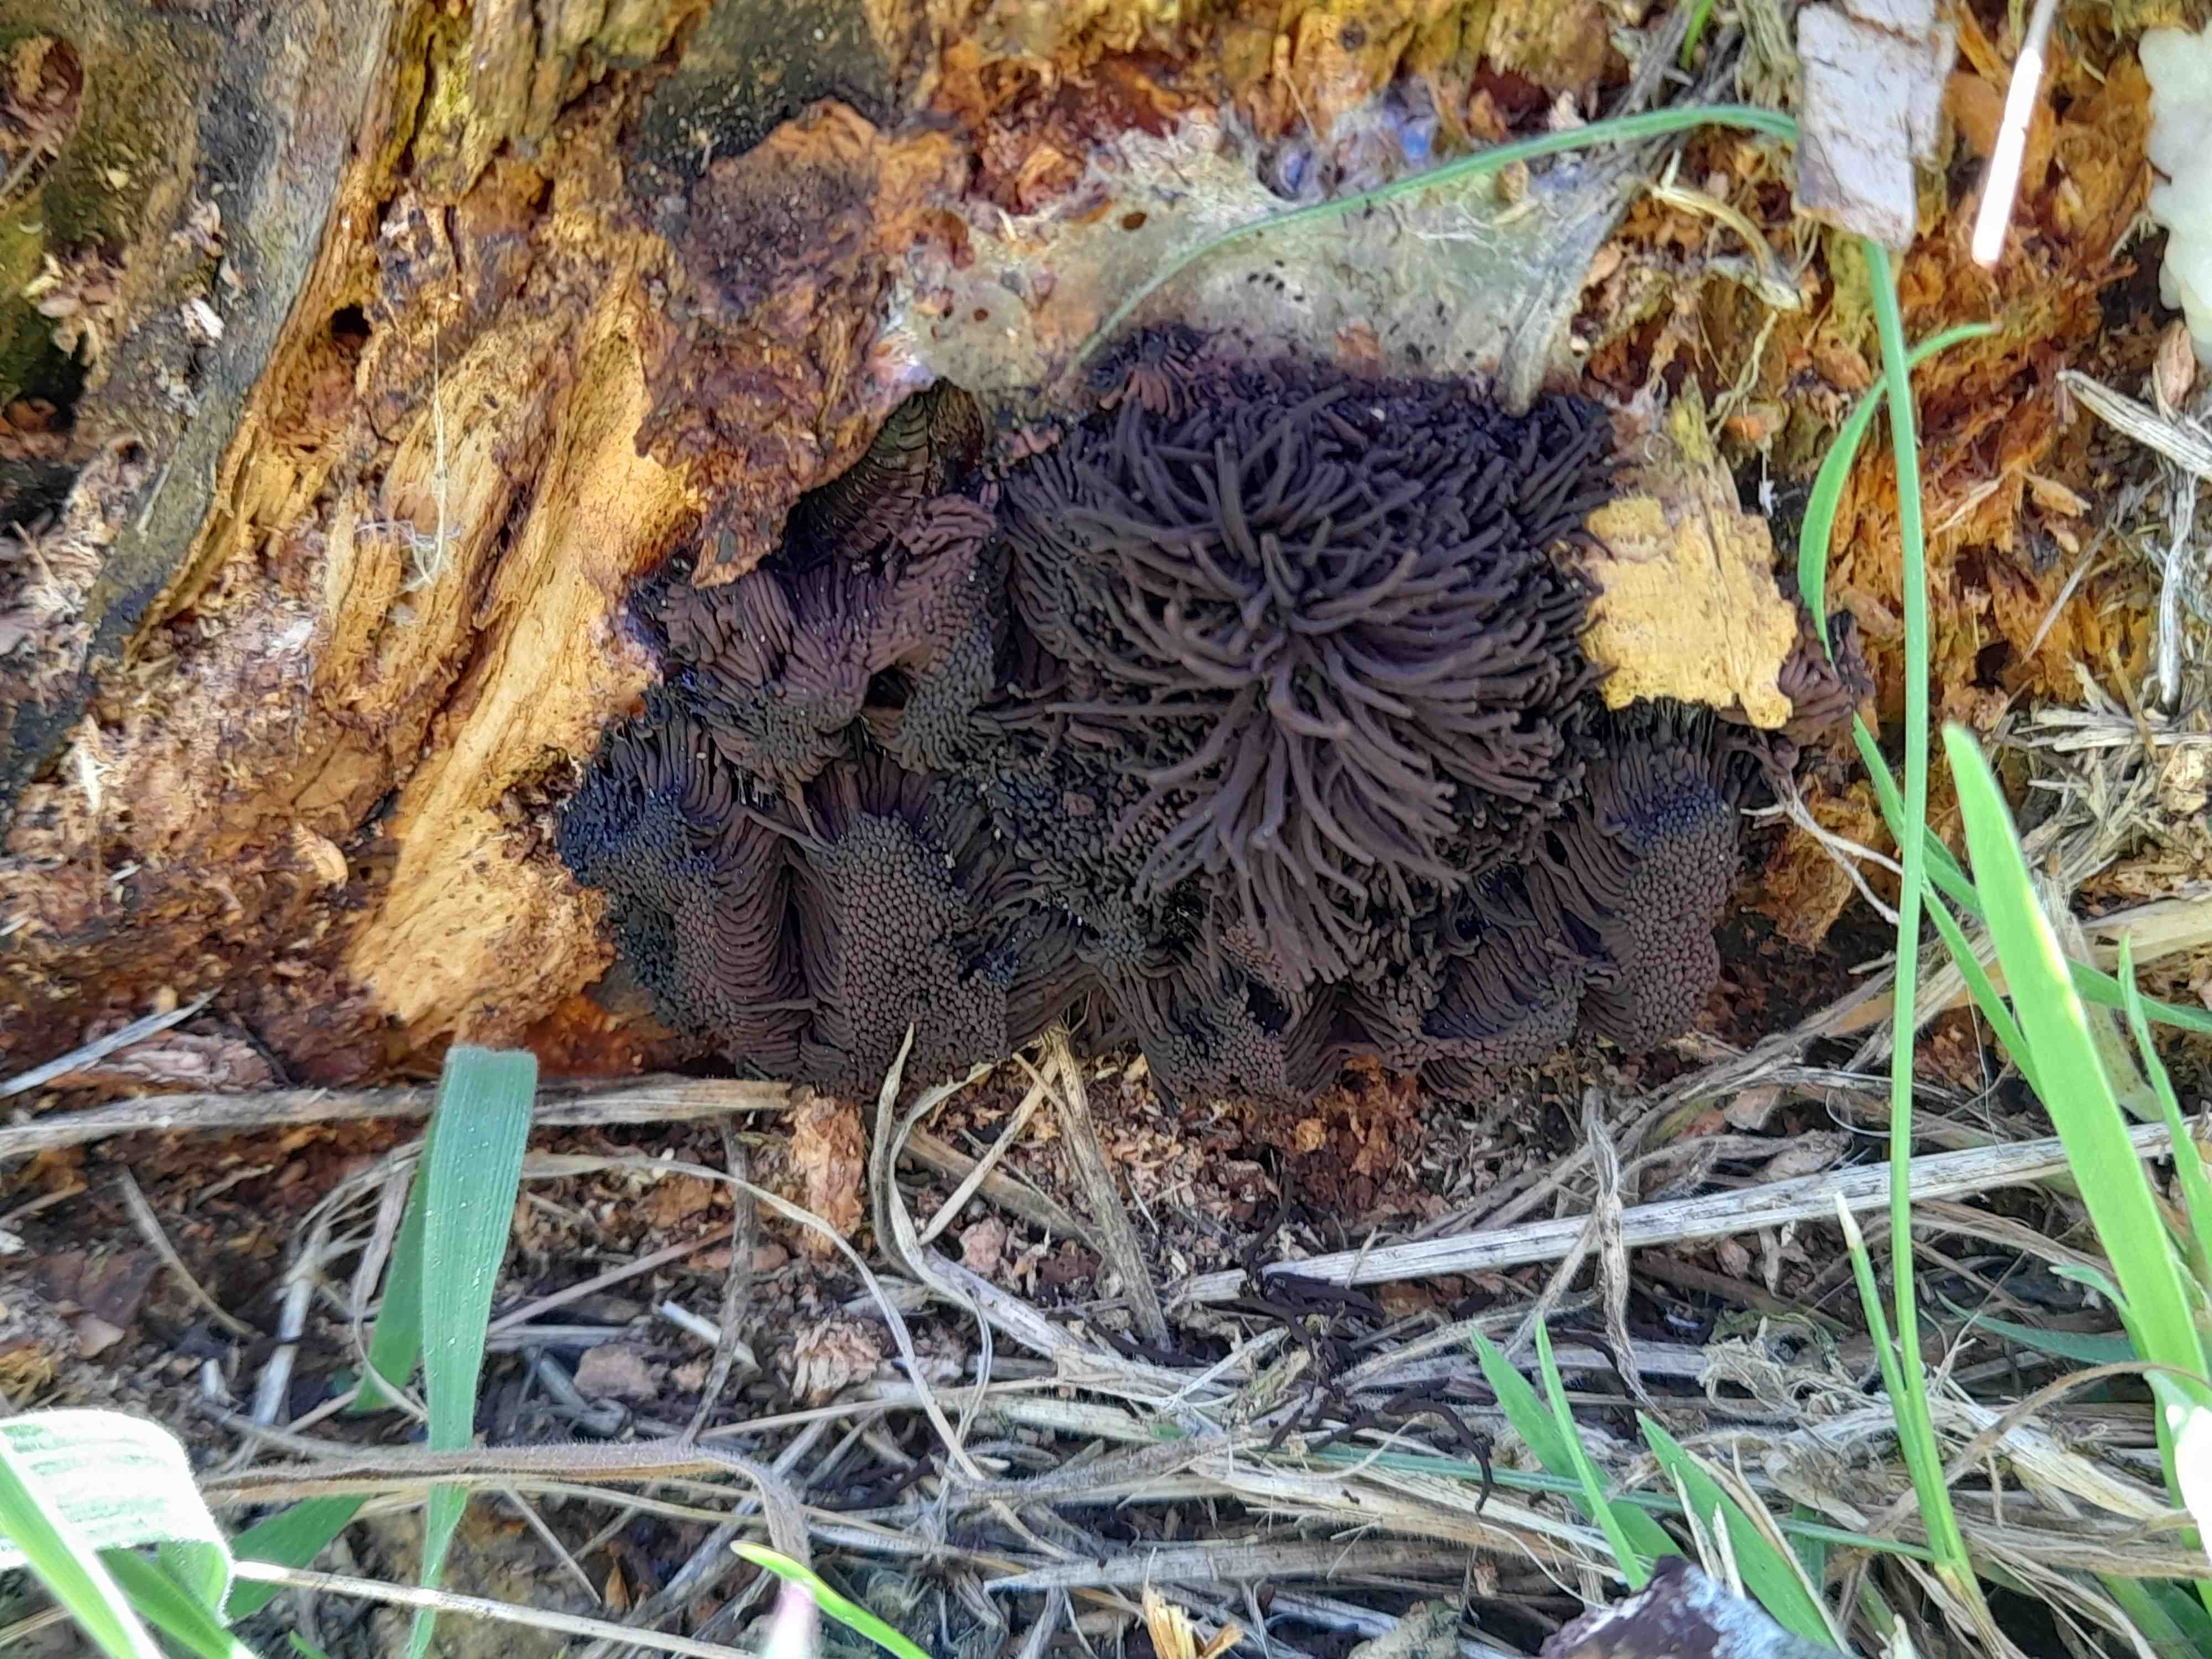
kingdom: Protozoa
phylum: Mycetozoa
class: Myxomycetes
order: Stemonitidales
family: Stemonitidaceae
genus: Stemonitis
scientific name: Stemonitis
